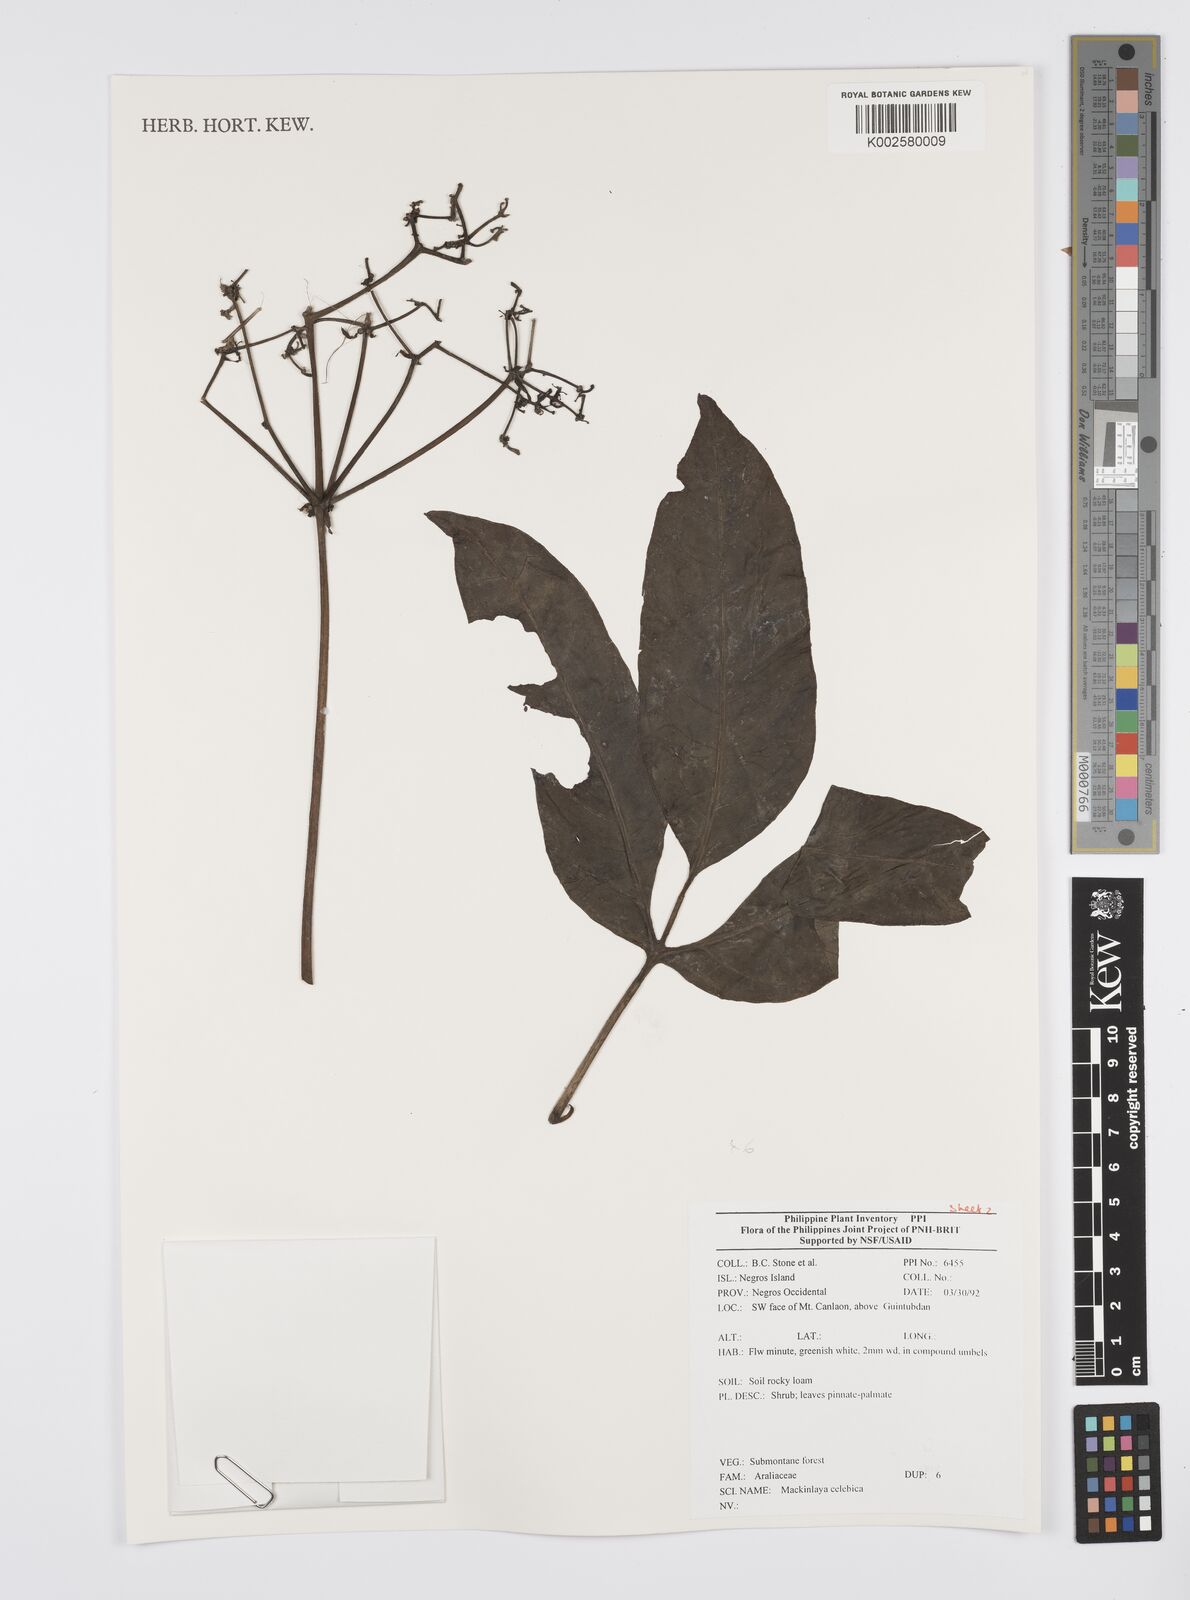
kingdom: Plantae
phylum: Tracheophyta
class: Magnoliopsida
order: Apiales
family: Apiaceae
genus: Mackinlaya
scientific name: Mackinlaya celebica
